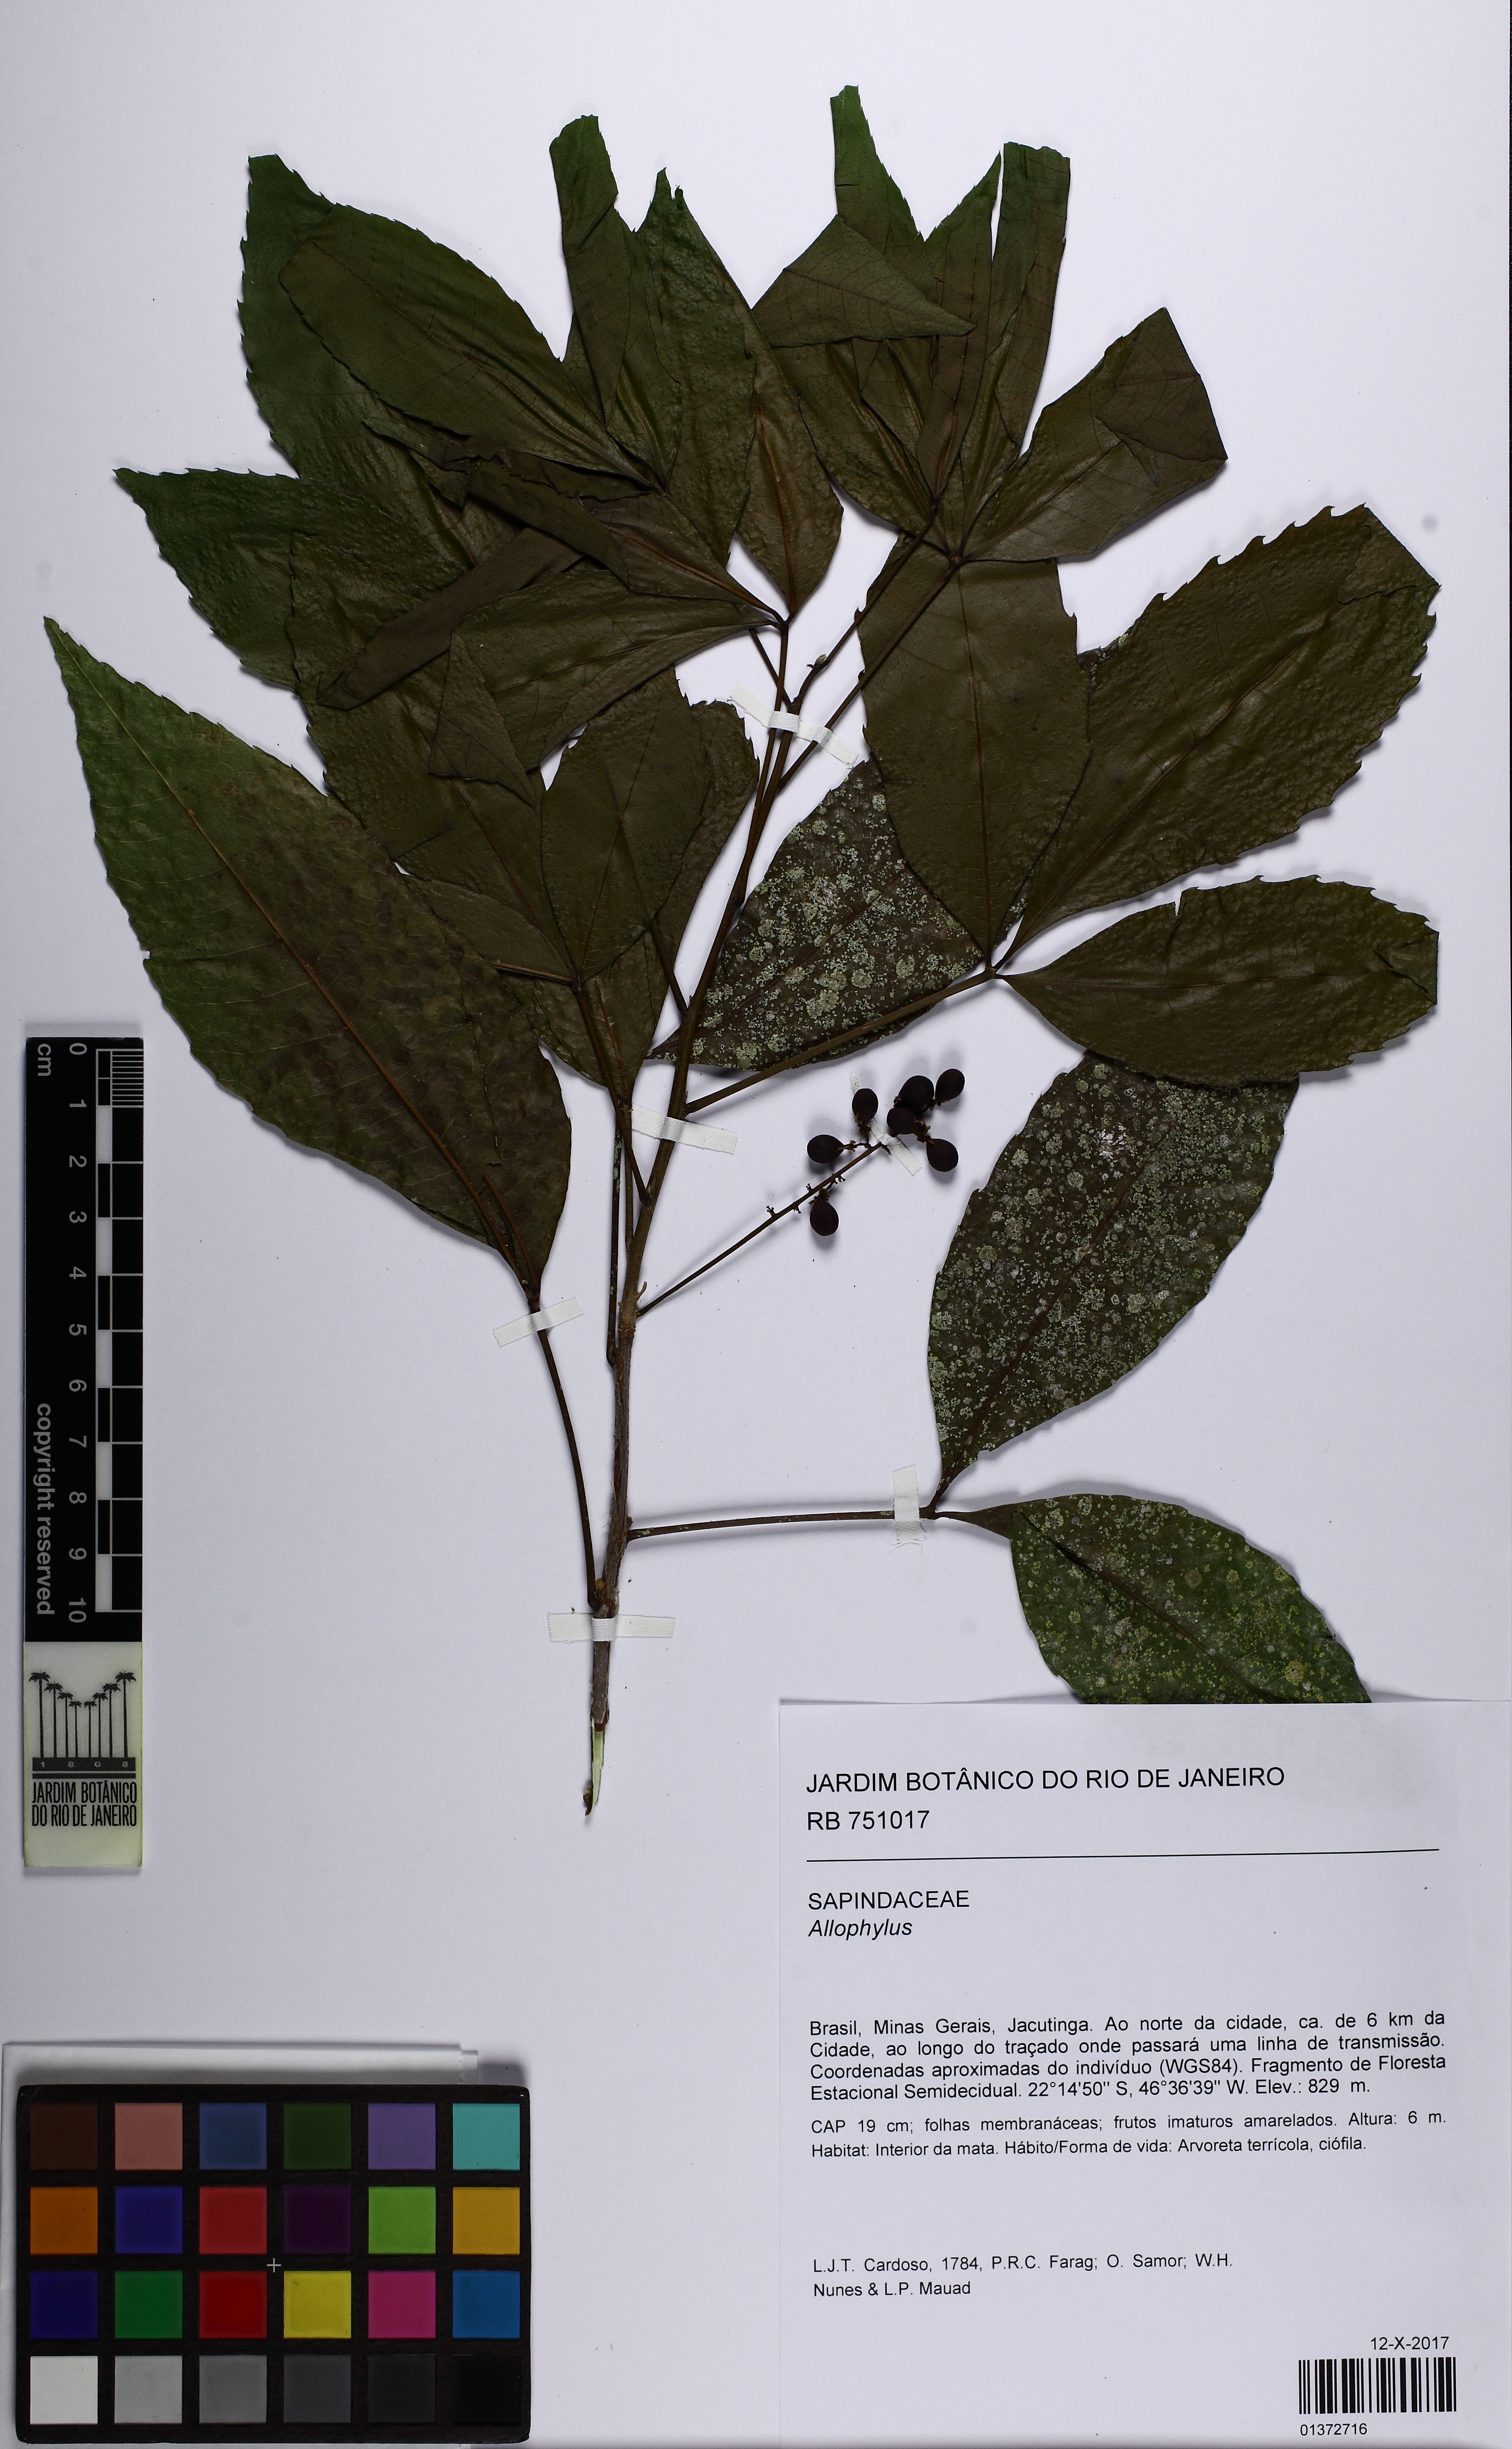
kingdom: Plantae
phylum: Tracheophyta
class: Magnoliopsida
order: Sapindales
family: Sapindaceae
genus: Allophylus
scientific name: Allophylus
